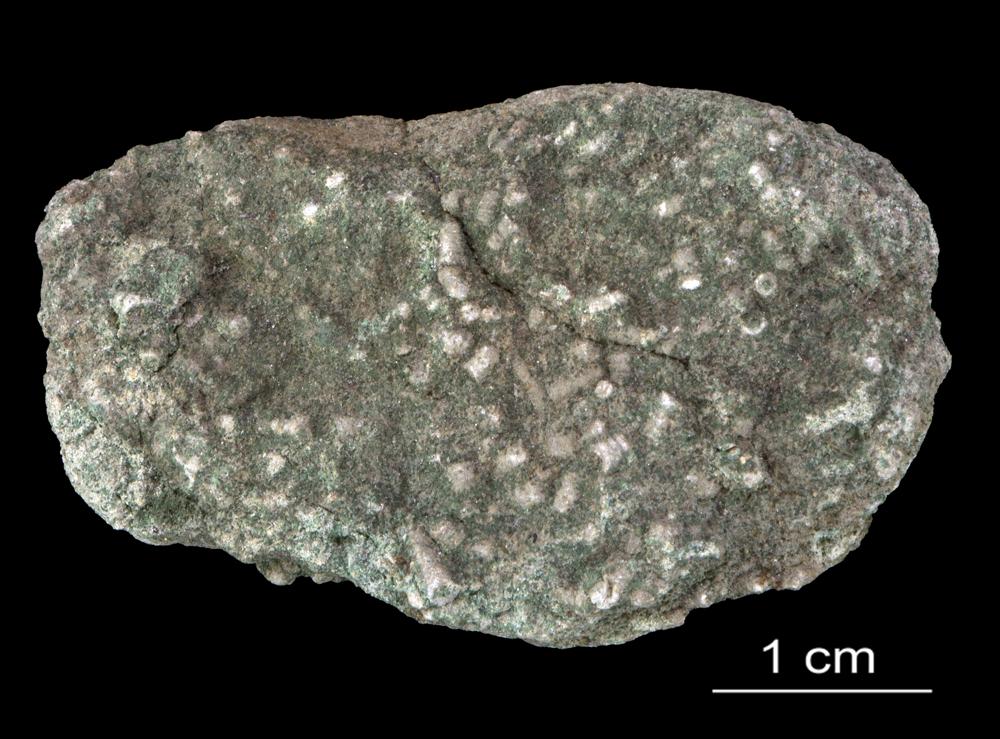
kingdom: Animalia
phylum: Annelida
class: Polychaeta
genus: Volborthella
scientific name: Volborthella tenuis
